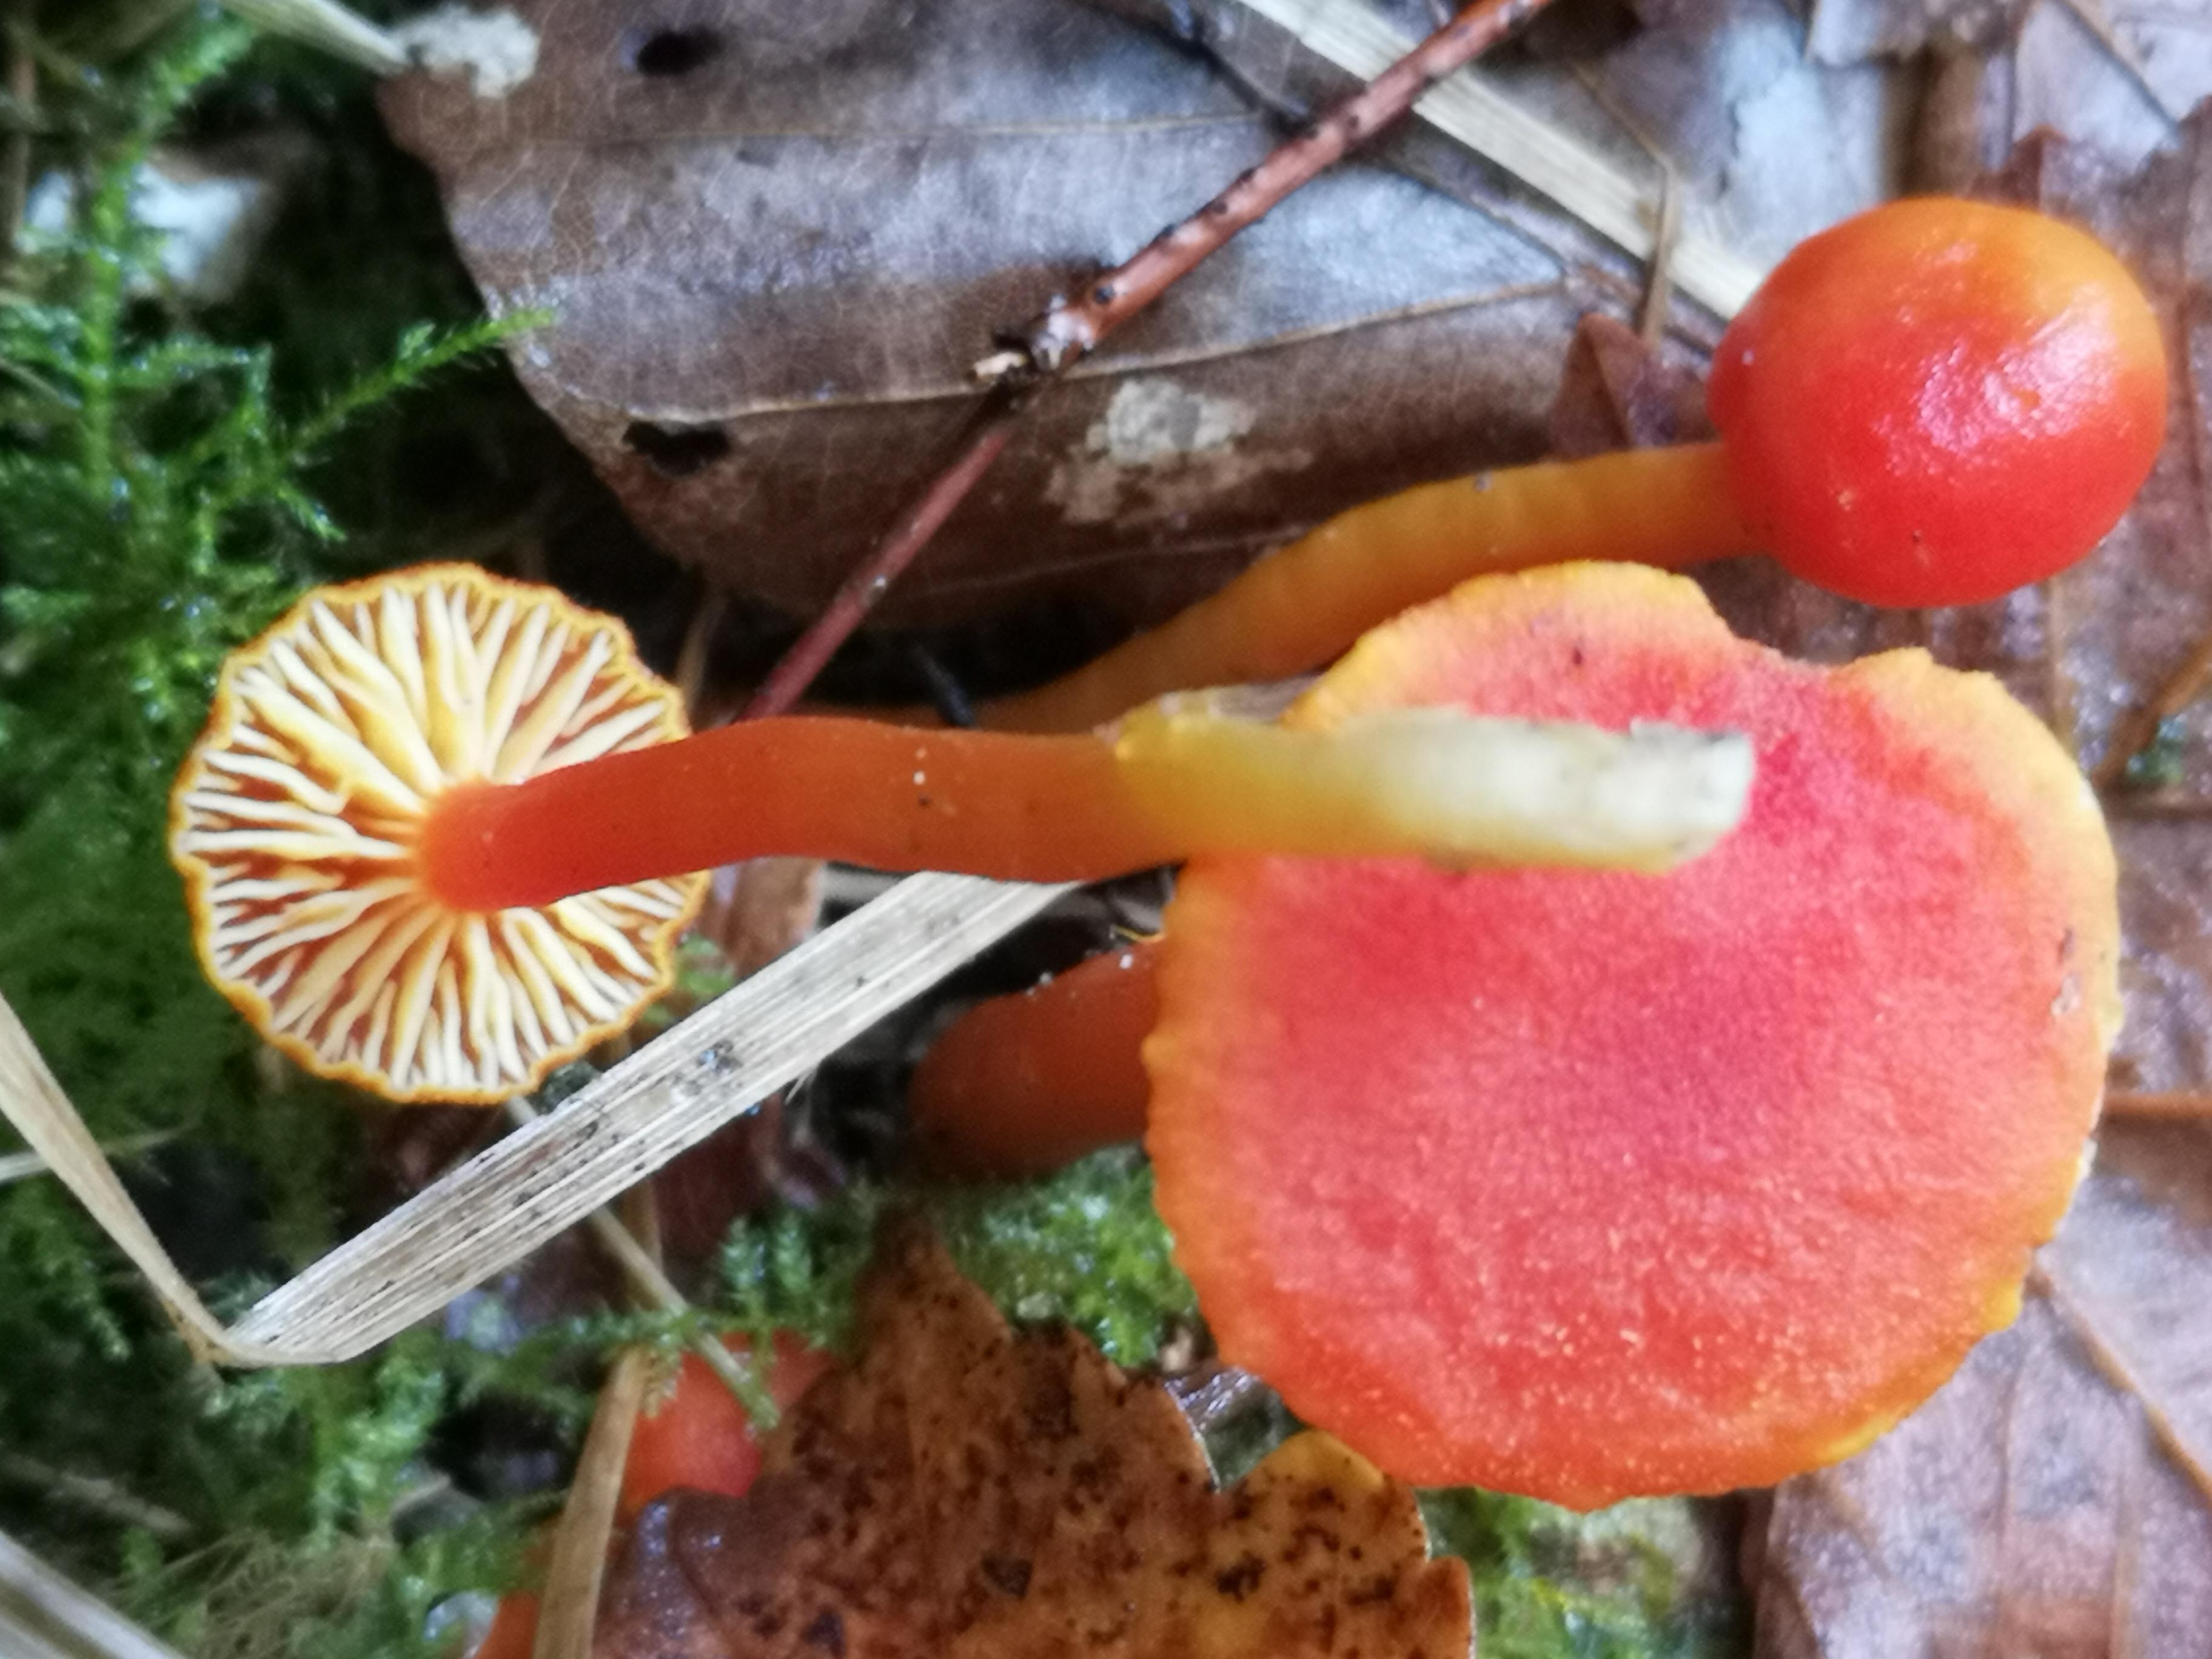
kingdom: Fungi
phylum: Basidiomycota
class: Agaricomycetes
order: Agaricales
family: Hygrophoraceae
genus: Hygrocybe
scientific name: Hygrocybe miniata
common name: mønje-vokshat
